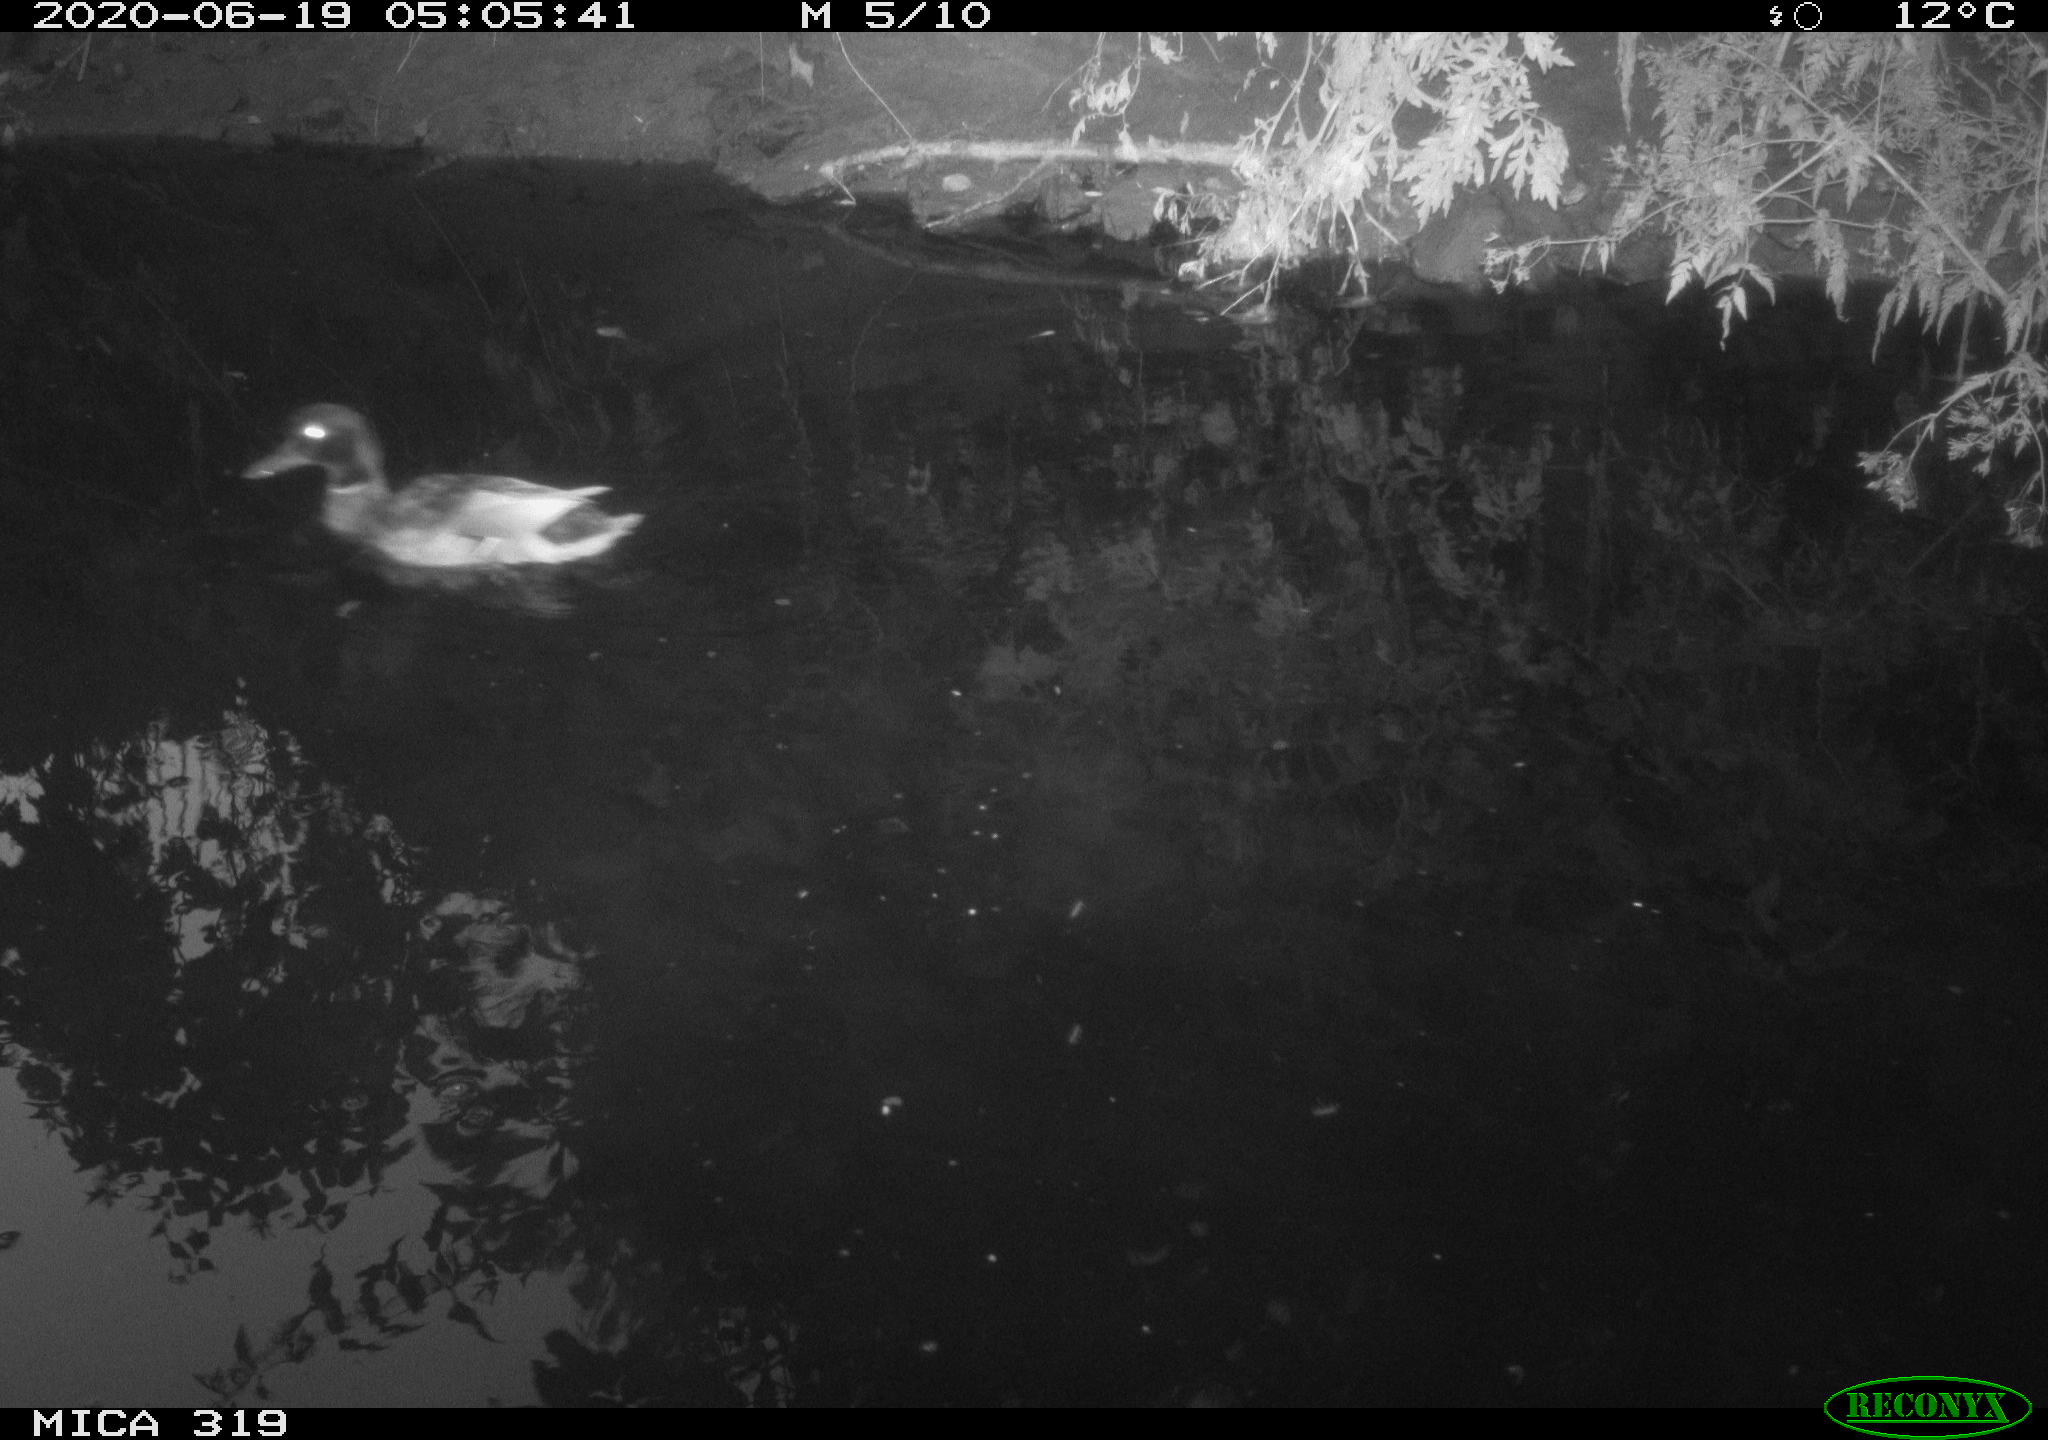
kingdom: Animalia
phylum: Chordata
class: Aves
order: Anseriformes
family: Anatidae
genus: Anas
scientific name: Anas platyrhynchos
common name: Mallard
